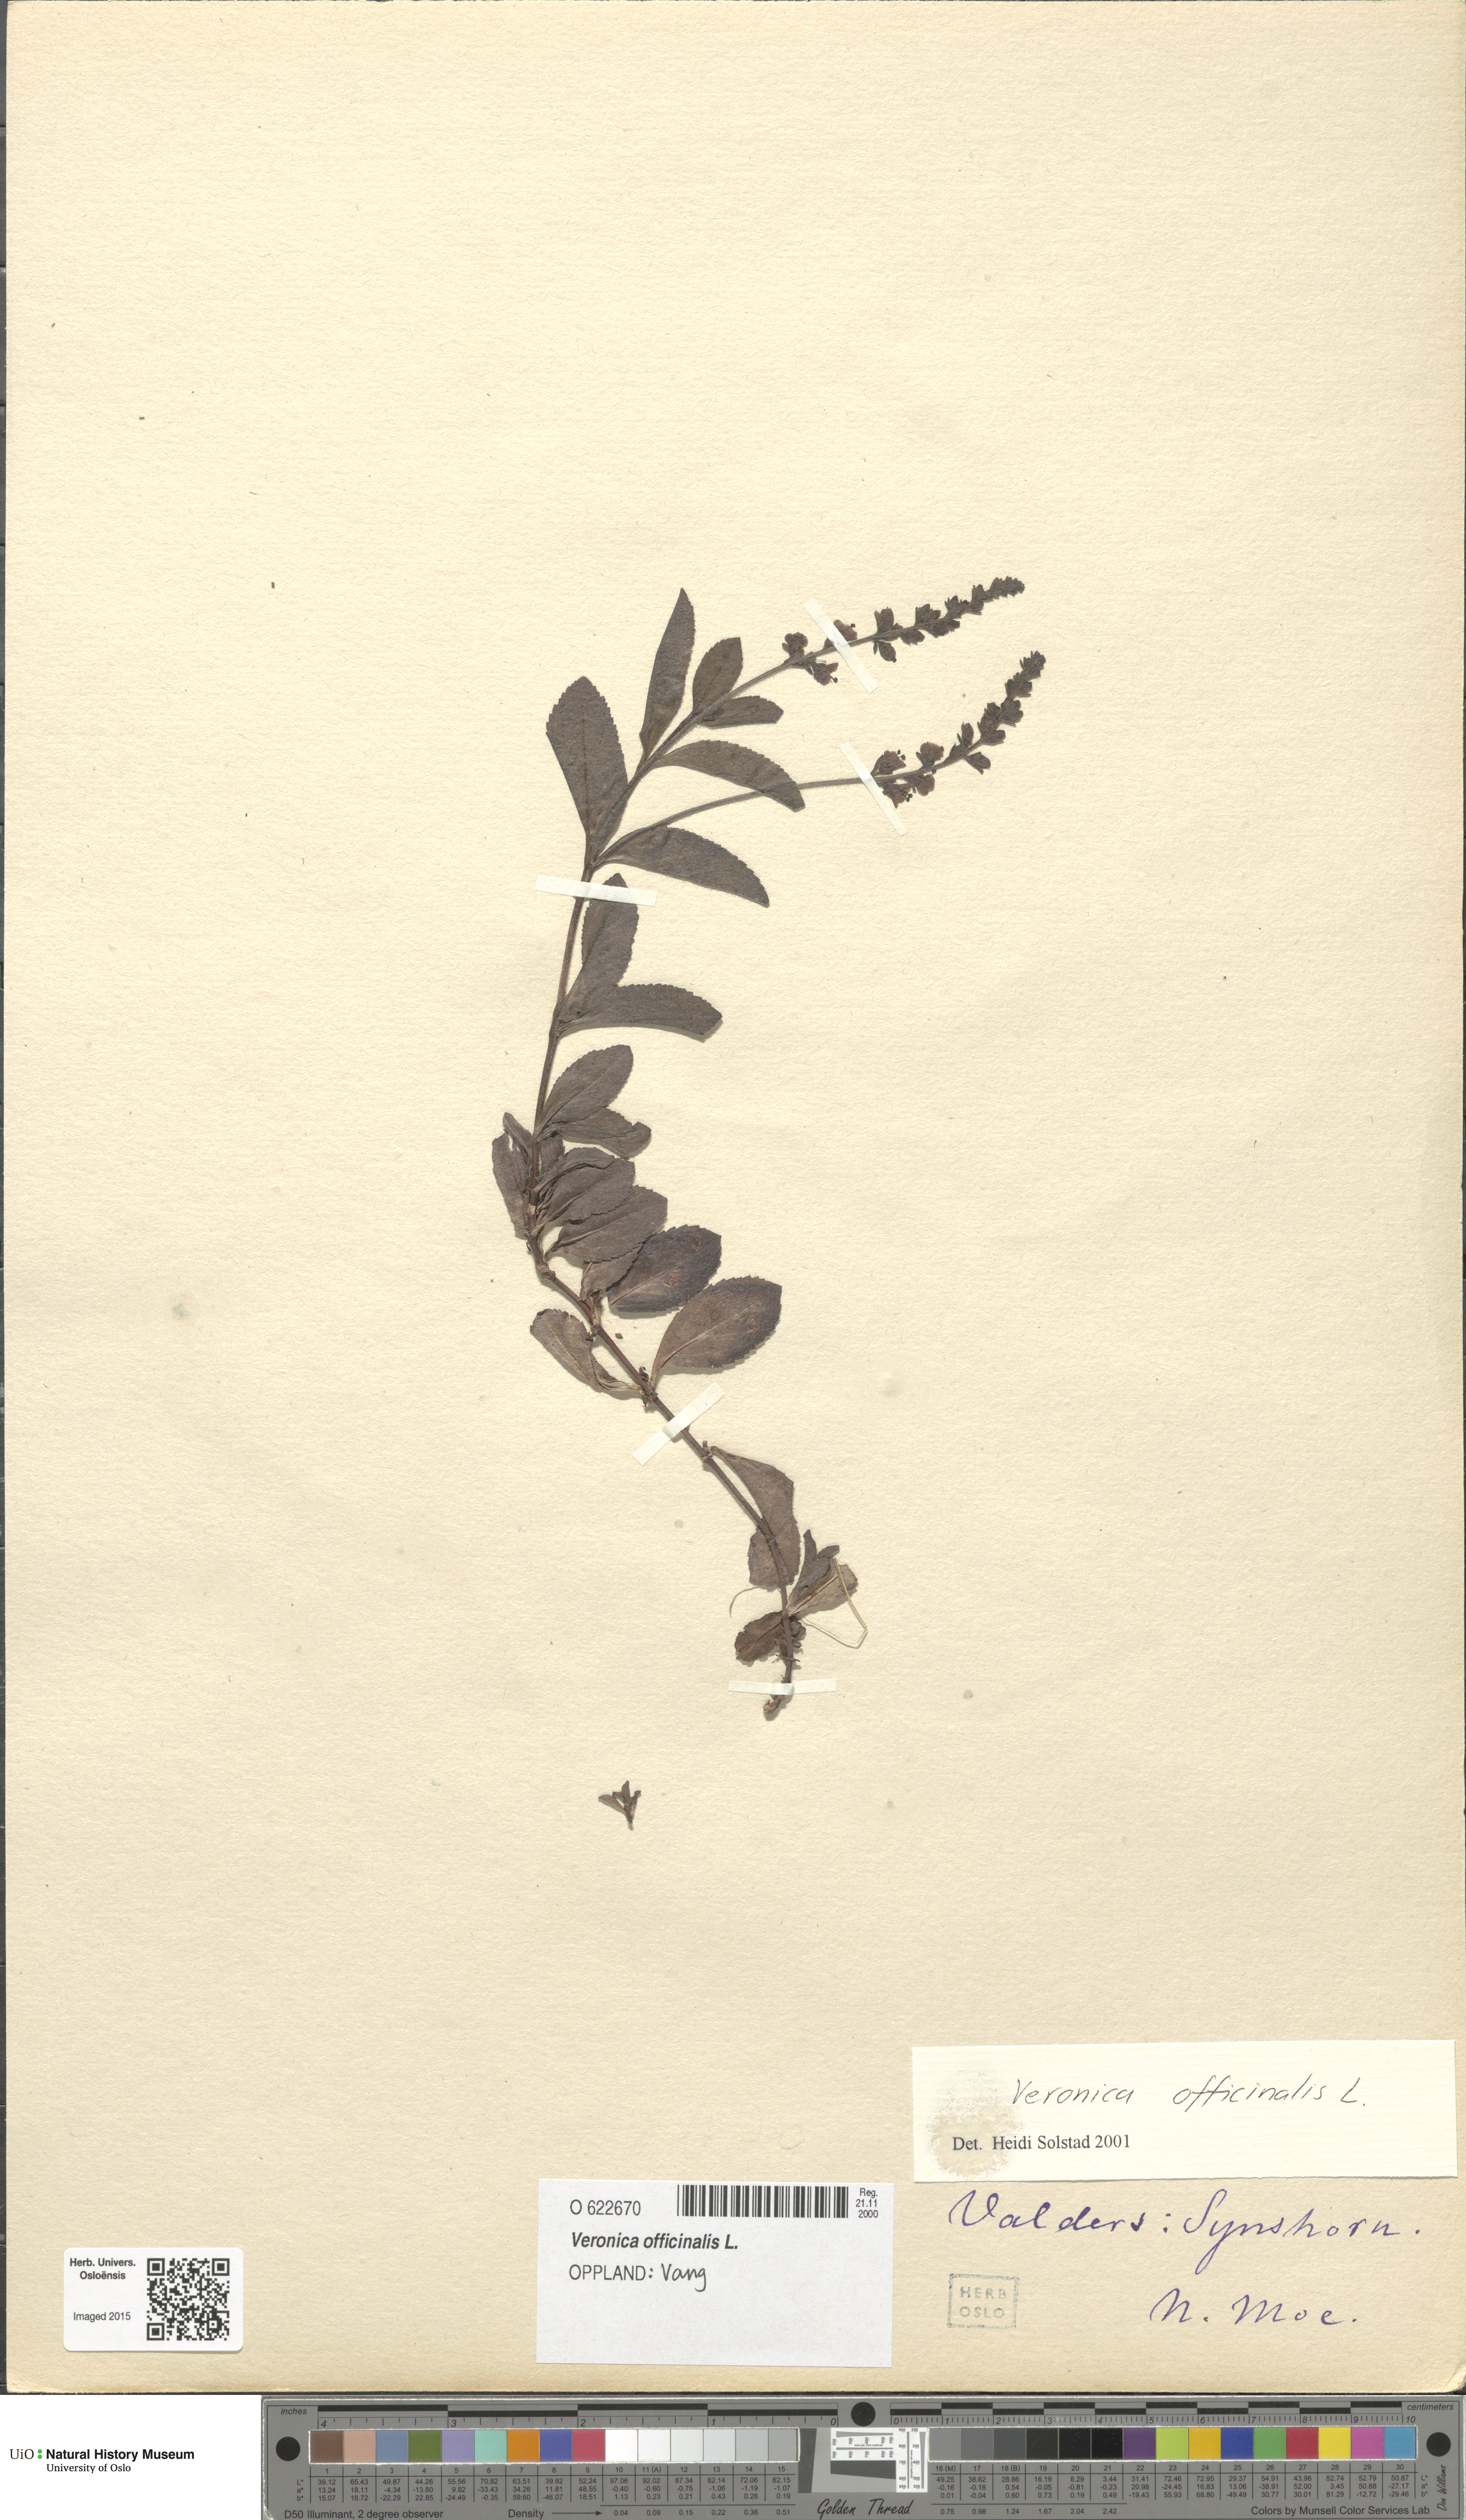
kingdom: Plantae
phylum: Tracheophyta
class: Magnoliopsida
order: Lamiales
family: Plantaginaceae
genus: Veronica
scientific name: Veronica officinalis
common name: Common speedwell
